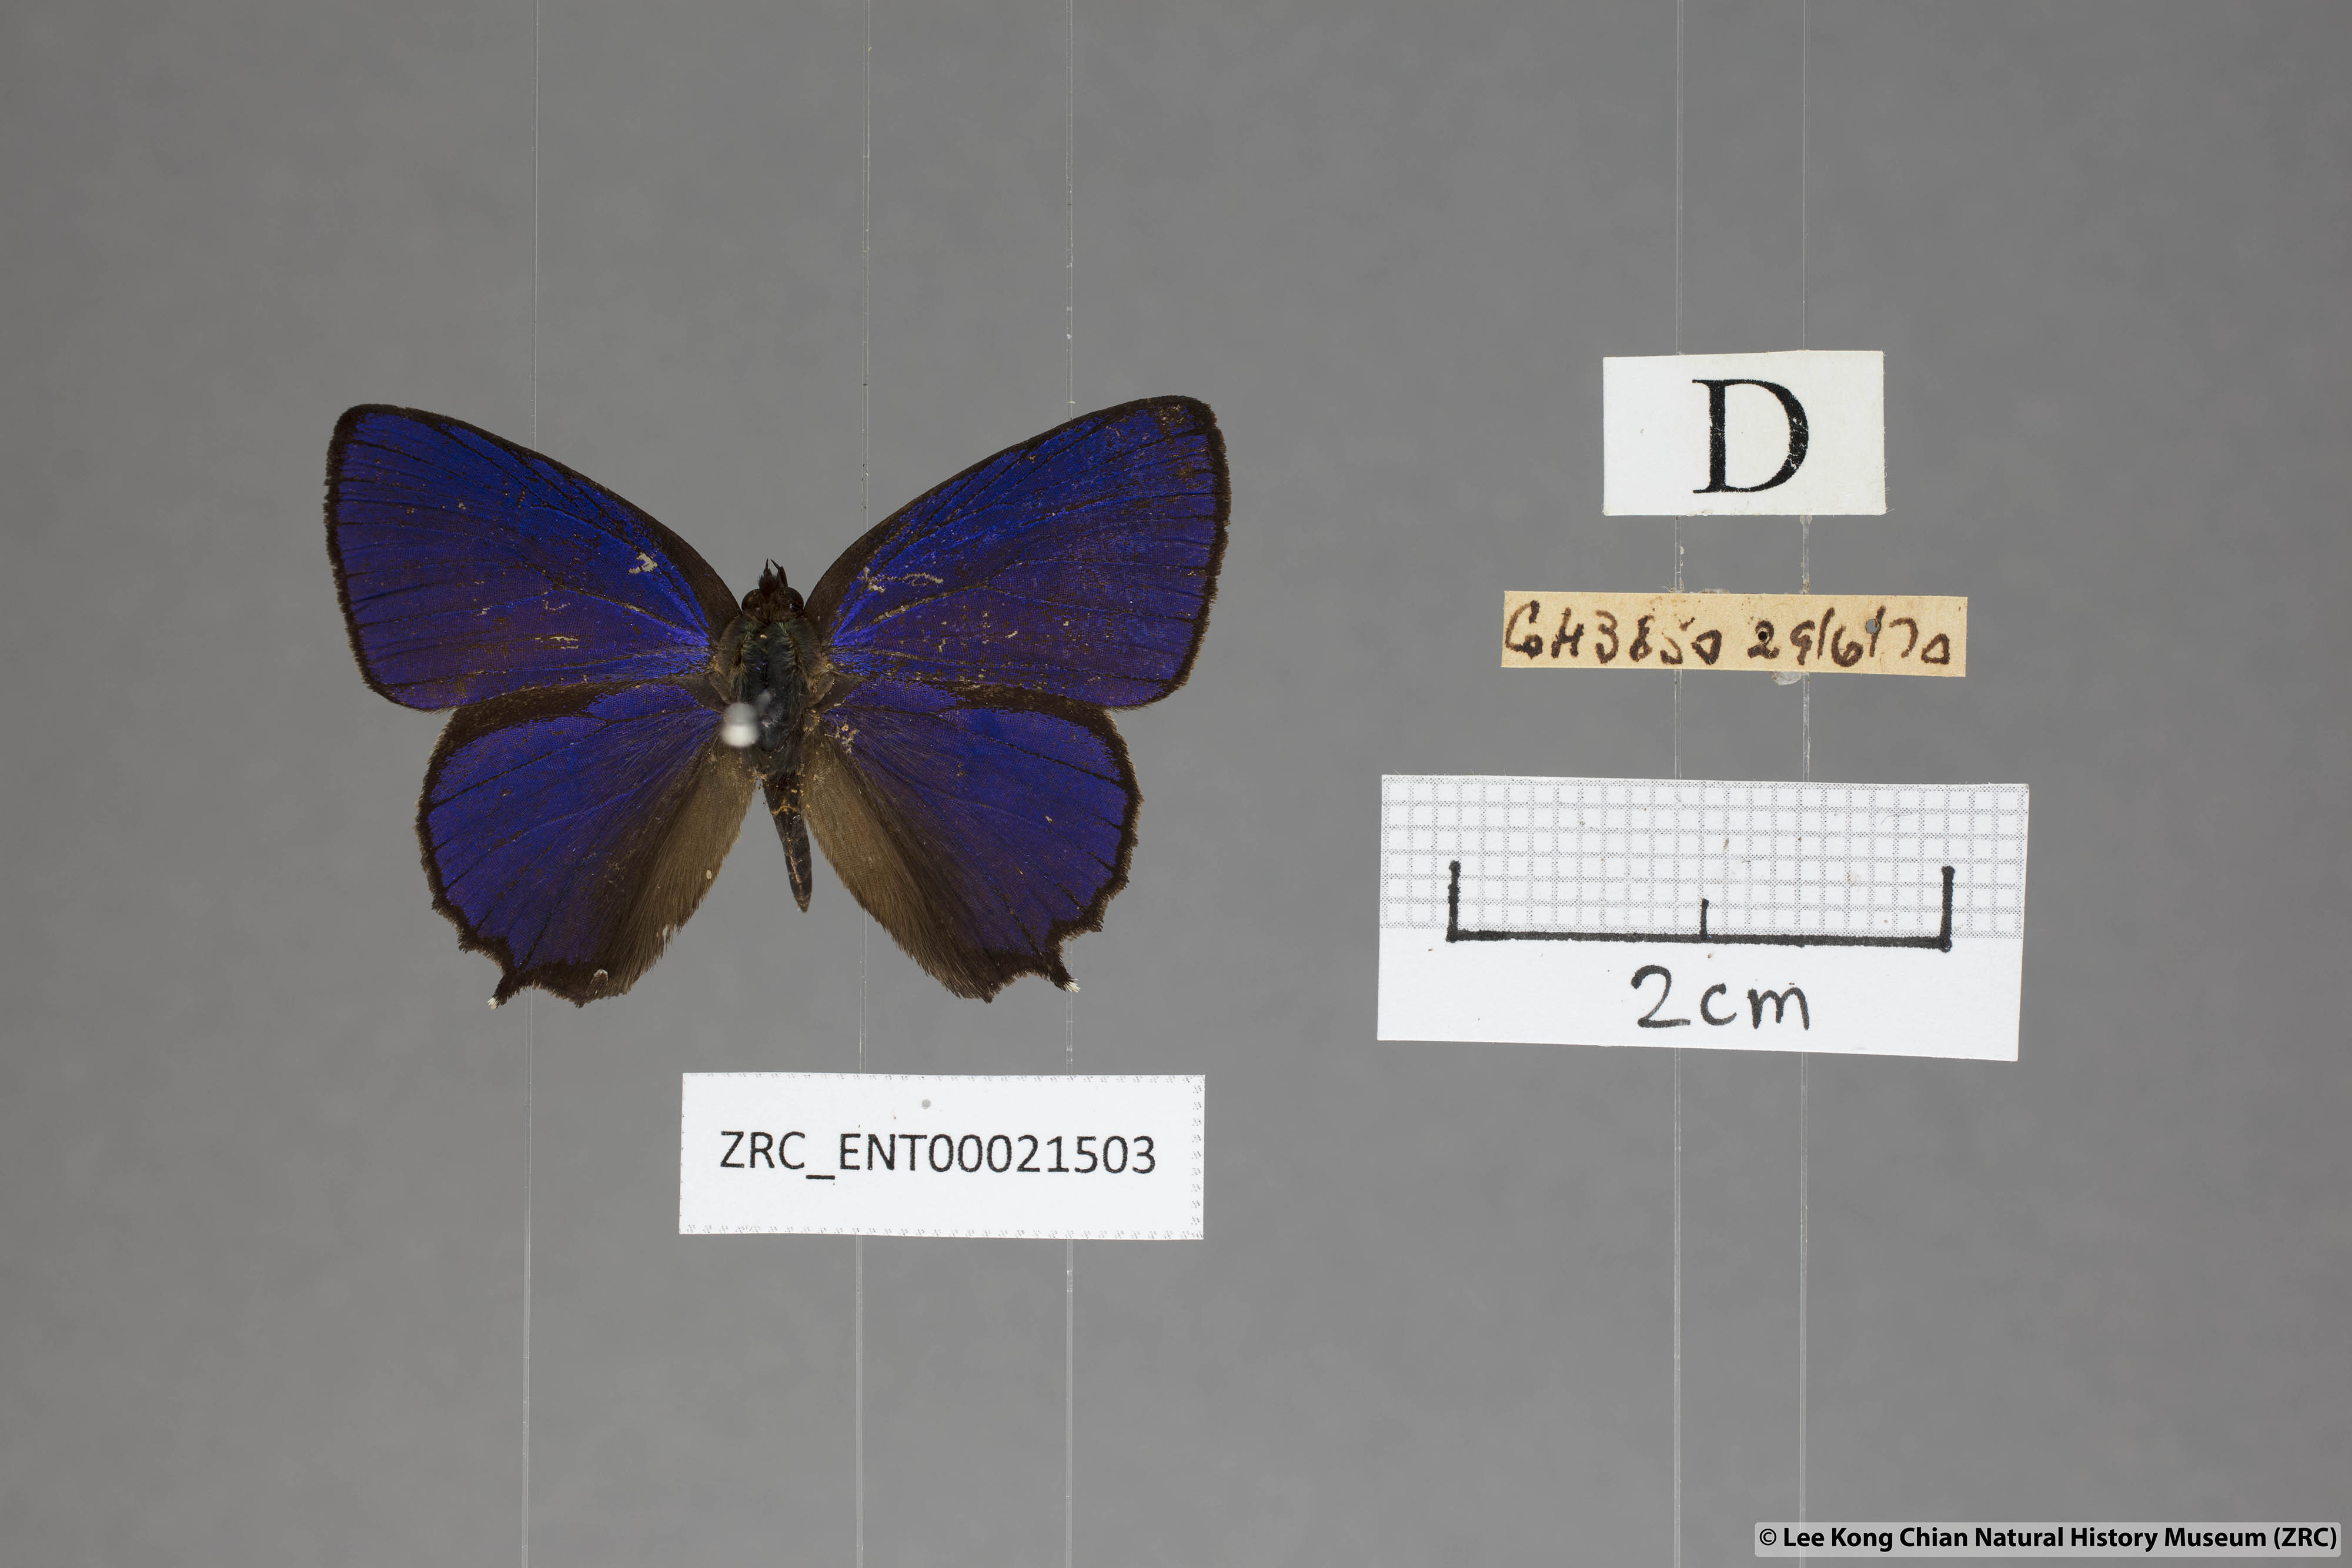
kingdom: Animalia
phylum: Arthropoda
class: Insecta
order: Lepidoptera
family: Lycaenidae
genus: Flos
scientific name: Flos
